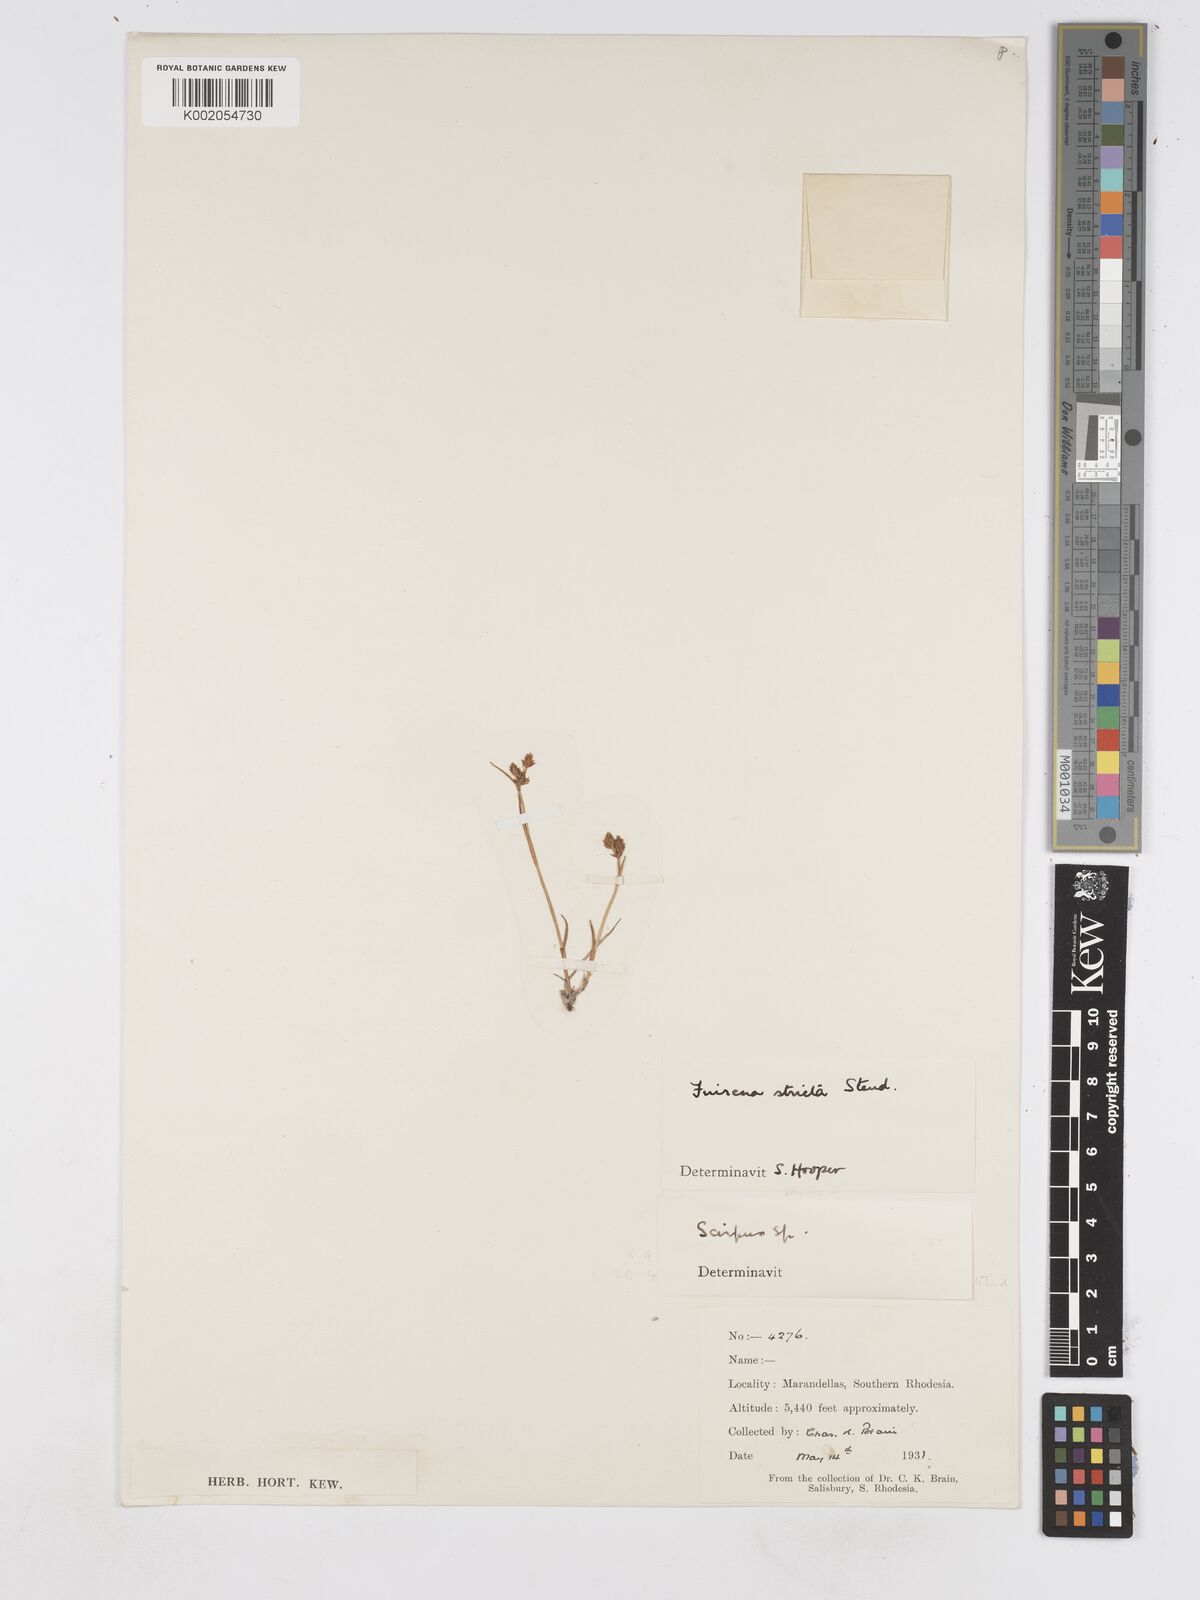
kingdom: Plantae
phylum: Tracheophyta
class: Liliopsida
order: Poales
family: Cyperaceae
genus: Fuirena
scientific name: Fuirena stricta
